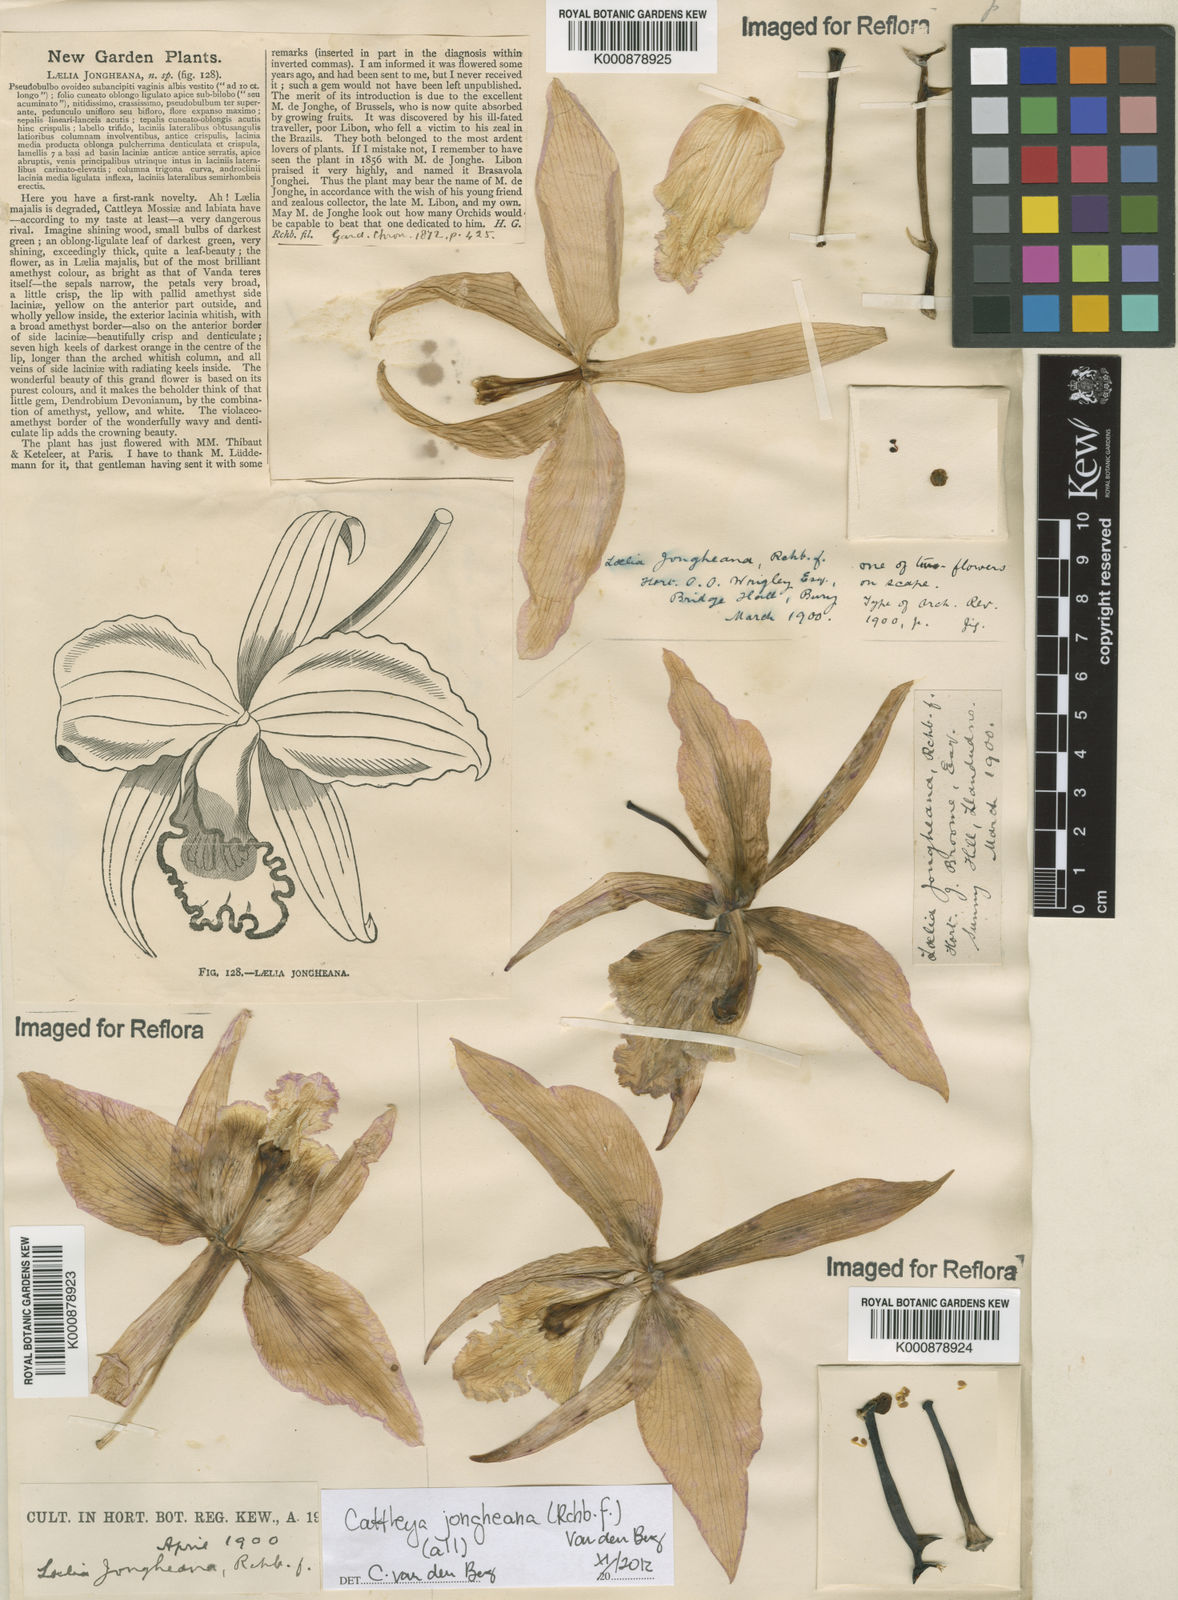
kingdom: Plantae
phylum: Tracheophyta
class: Liliopsida
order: Asparagales
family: Orchidaceae
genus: Cattleya
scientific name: Cattleya jongheana
